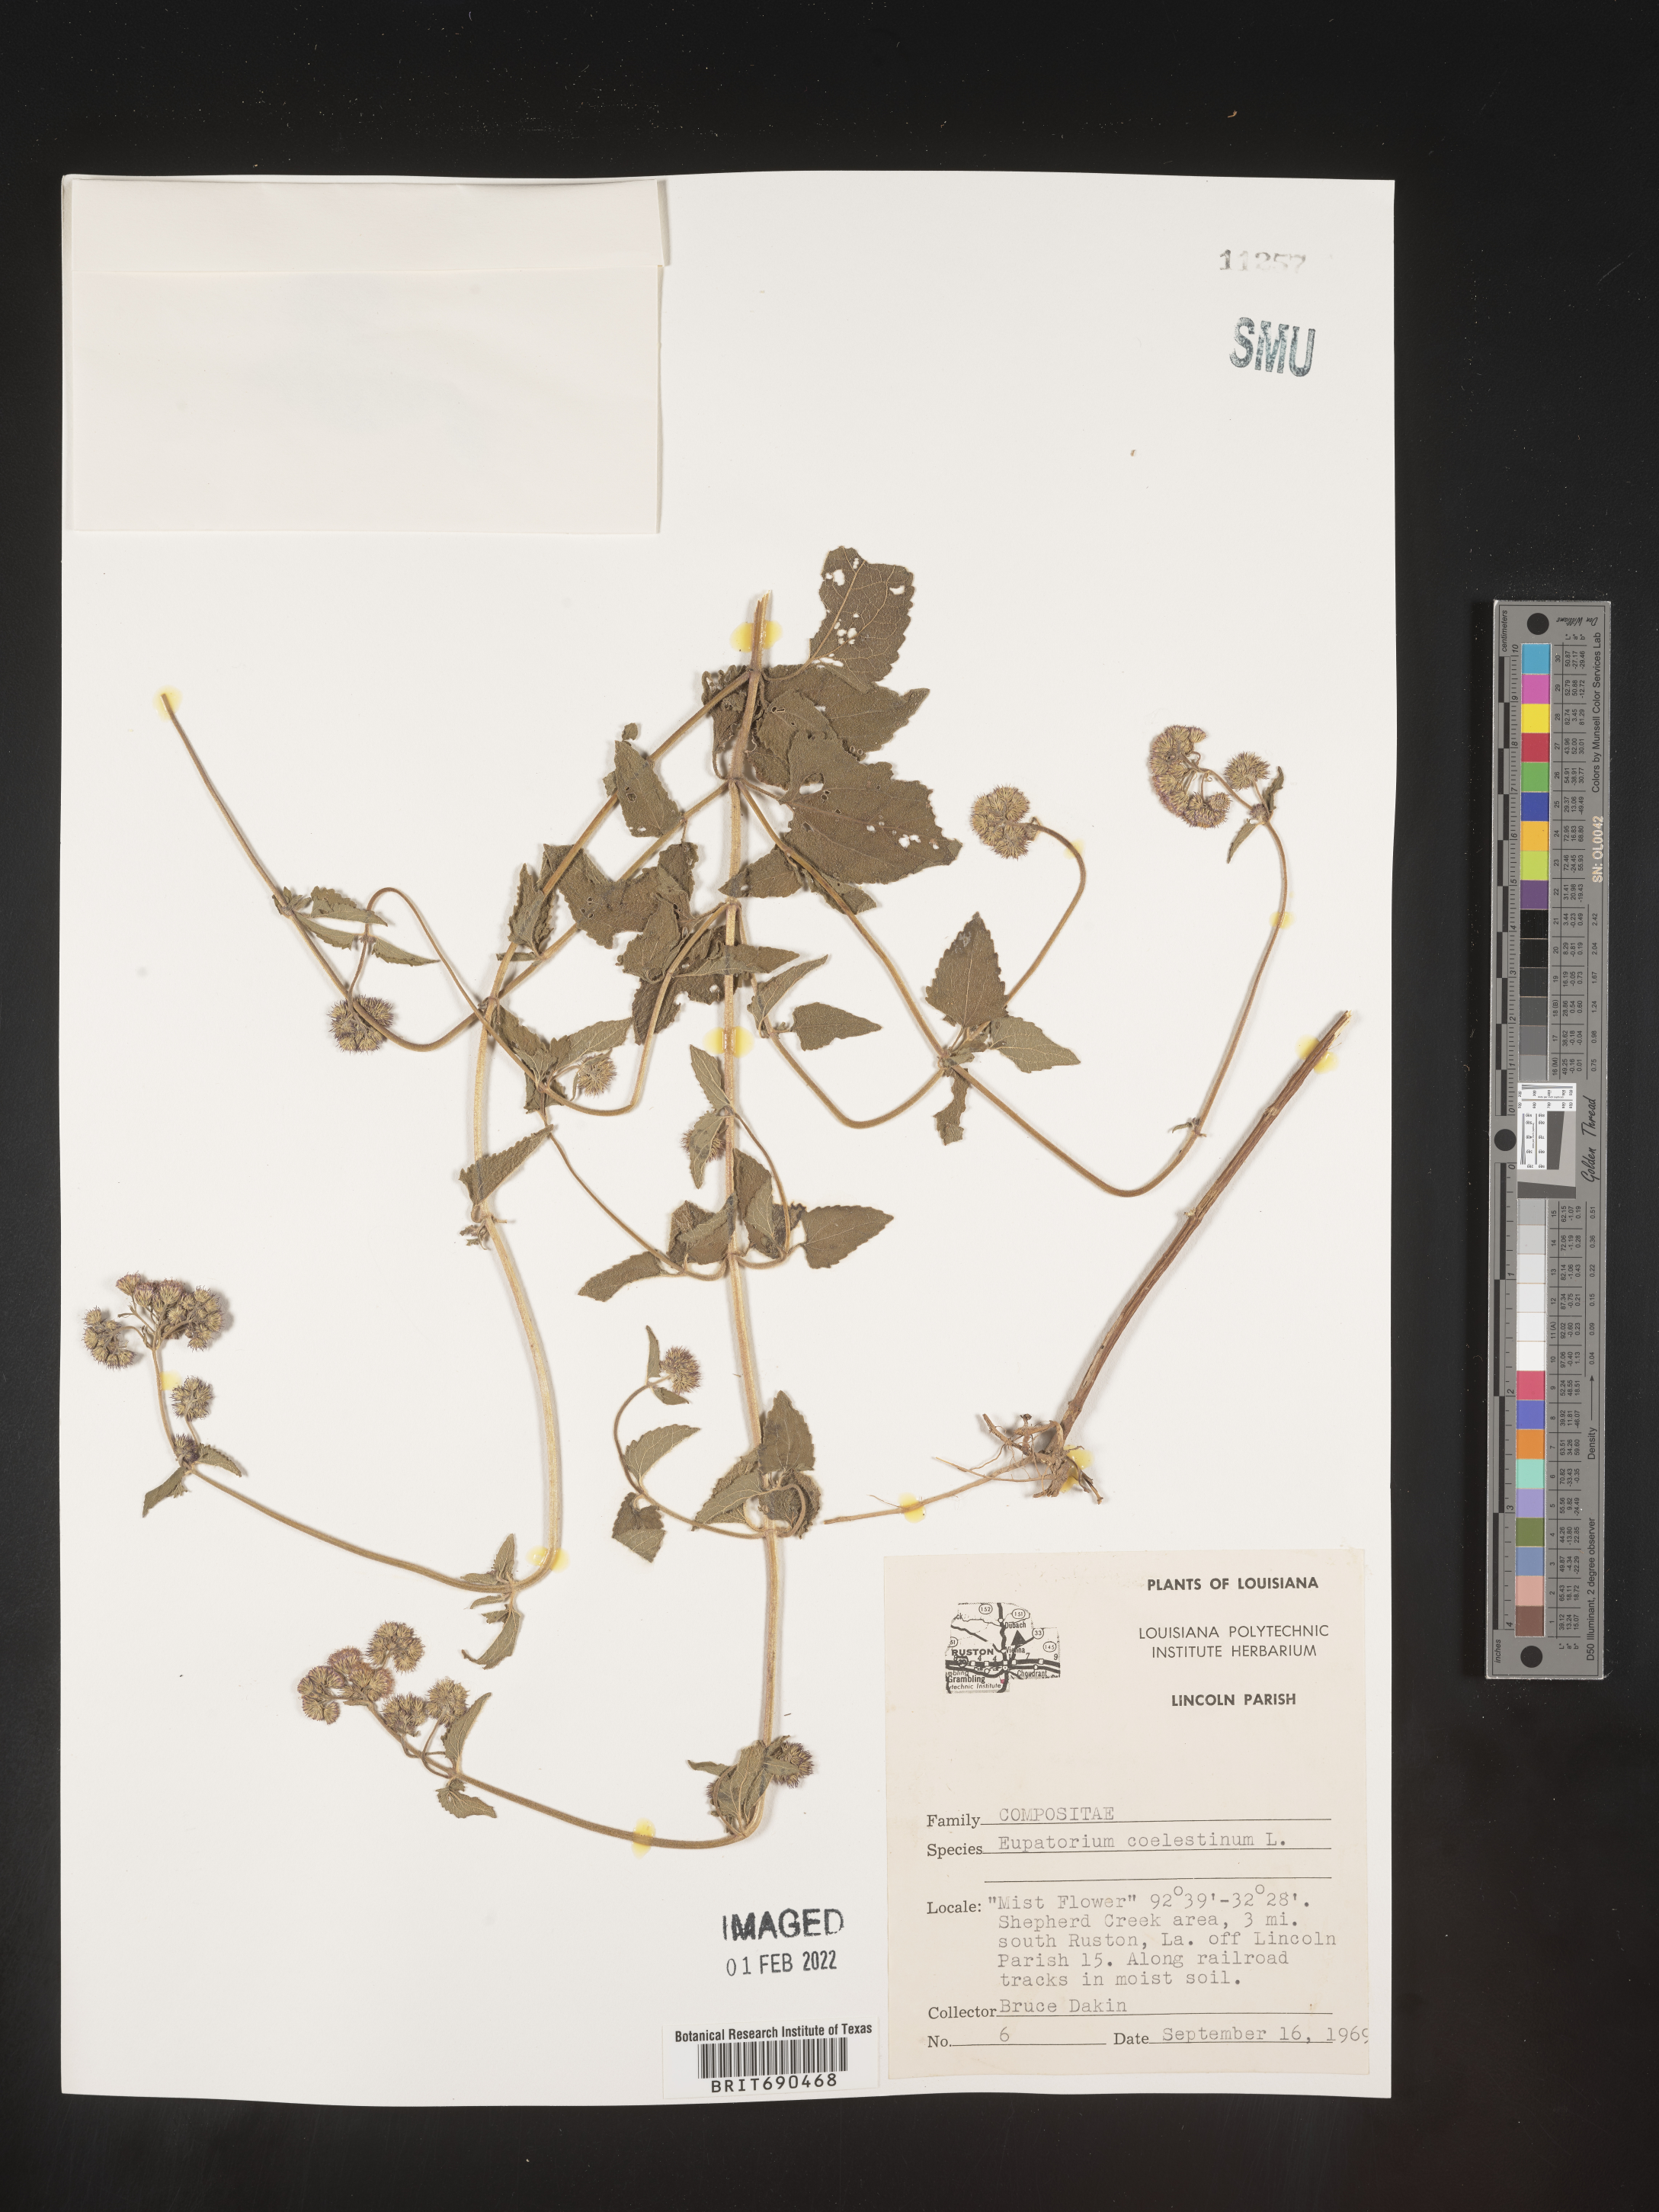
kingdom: Plantae
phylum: Tracheophyta
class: Magnoliopsida
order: Asterales
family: Asteraceae
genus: Conoclinium
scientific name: Conoclinium coelestinum
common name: Blue mistflower
